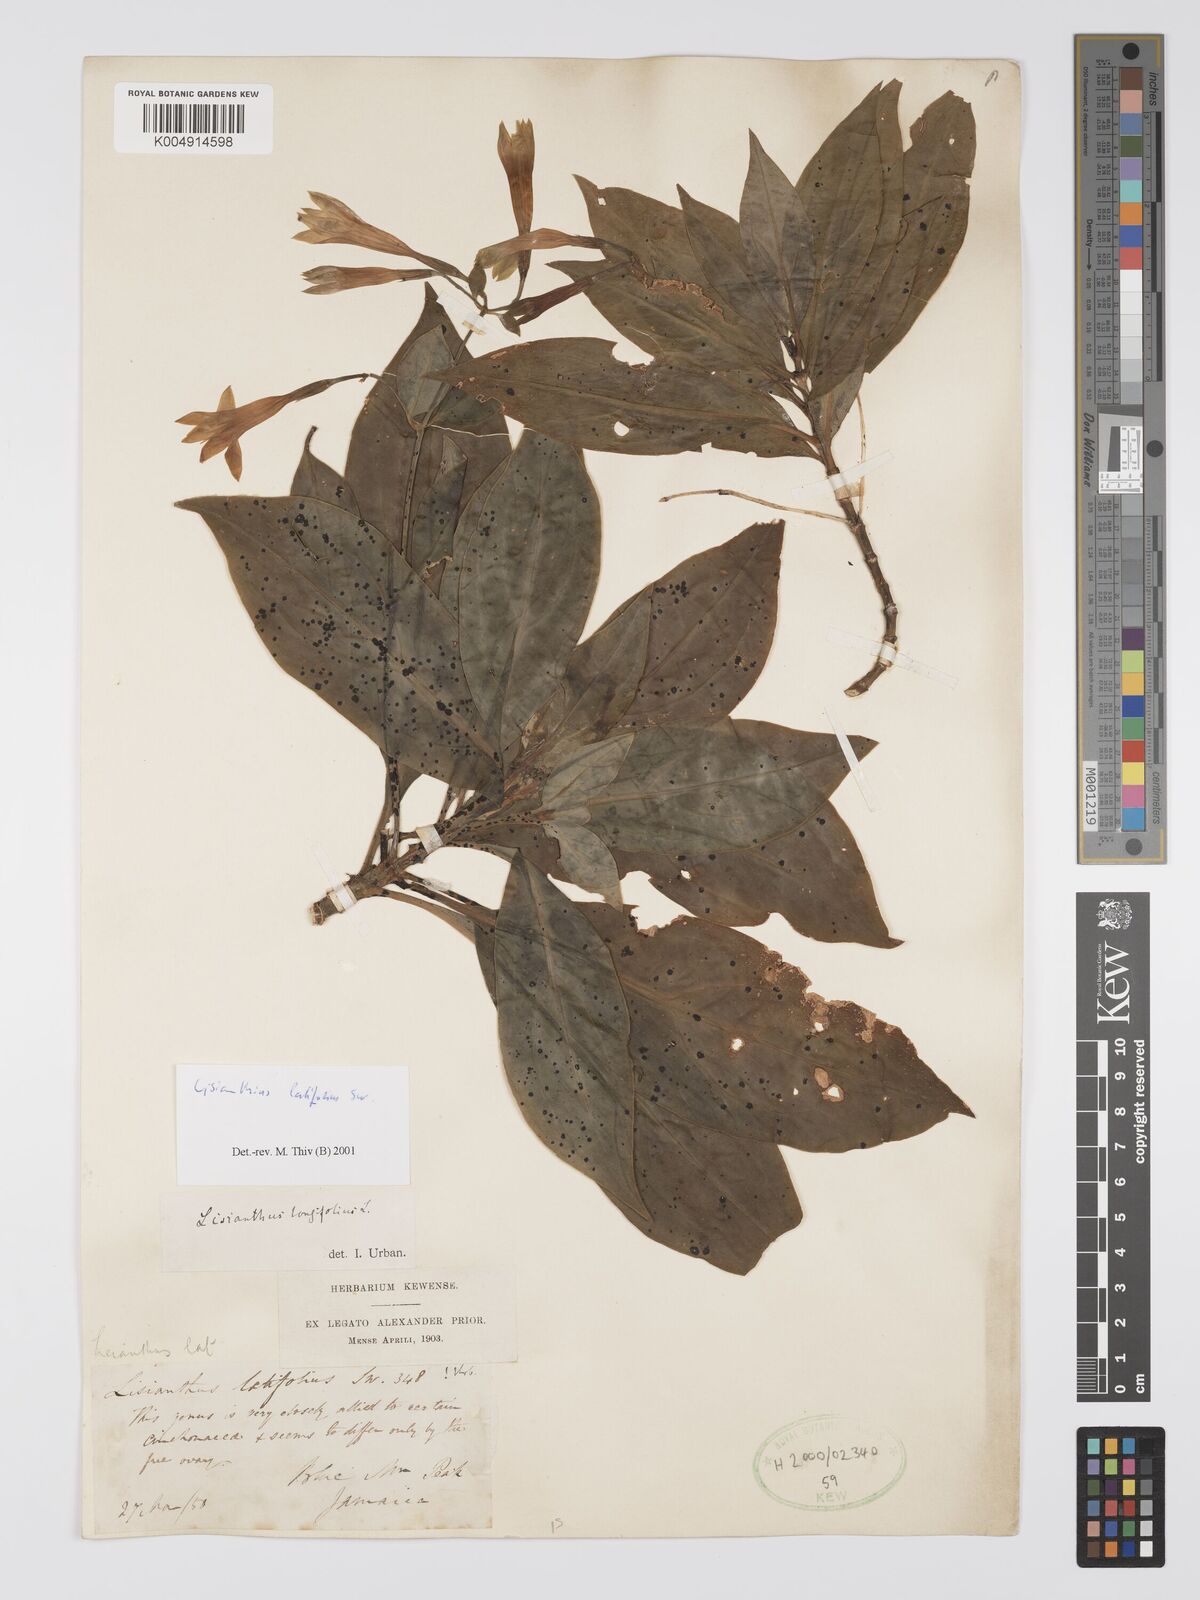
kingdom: Plantae
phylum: Tracheophyta
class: Magnoliopsida
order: Gentianales
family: Gentianaceae
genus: Lisianthus
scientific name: Lisianthus latifolius
